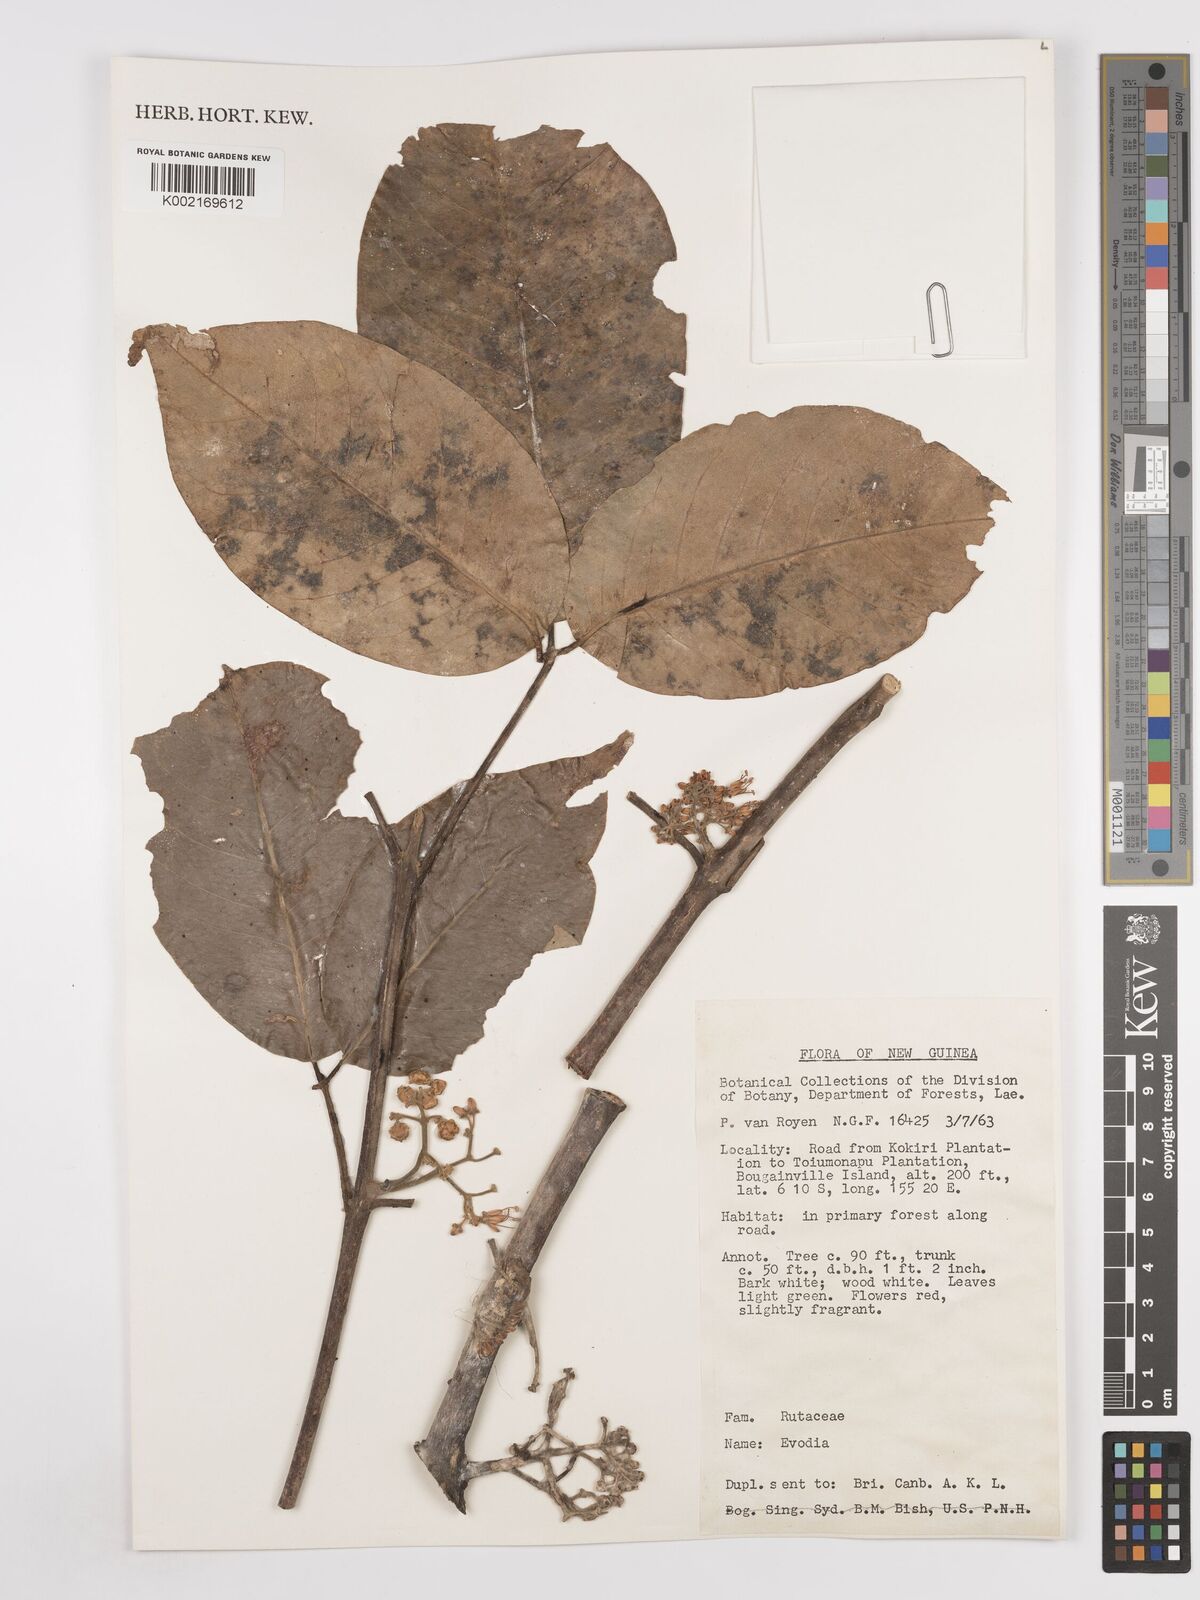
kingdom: Plantae
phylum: Tracheophyta
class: Magnoliopsida
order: Sapindales
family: Rutaceae
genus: Euodia
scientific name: Euodia
